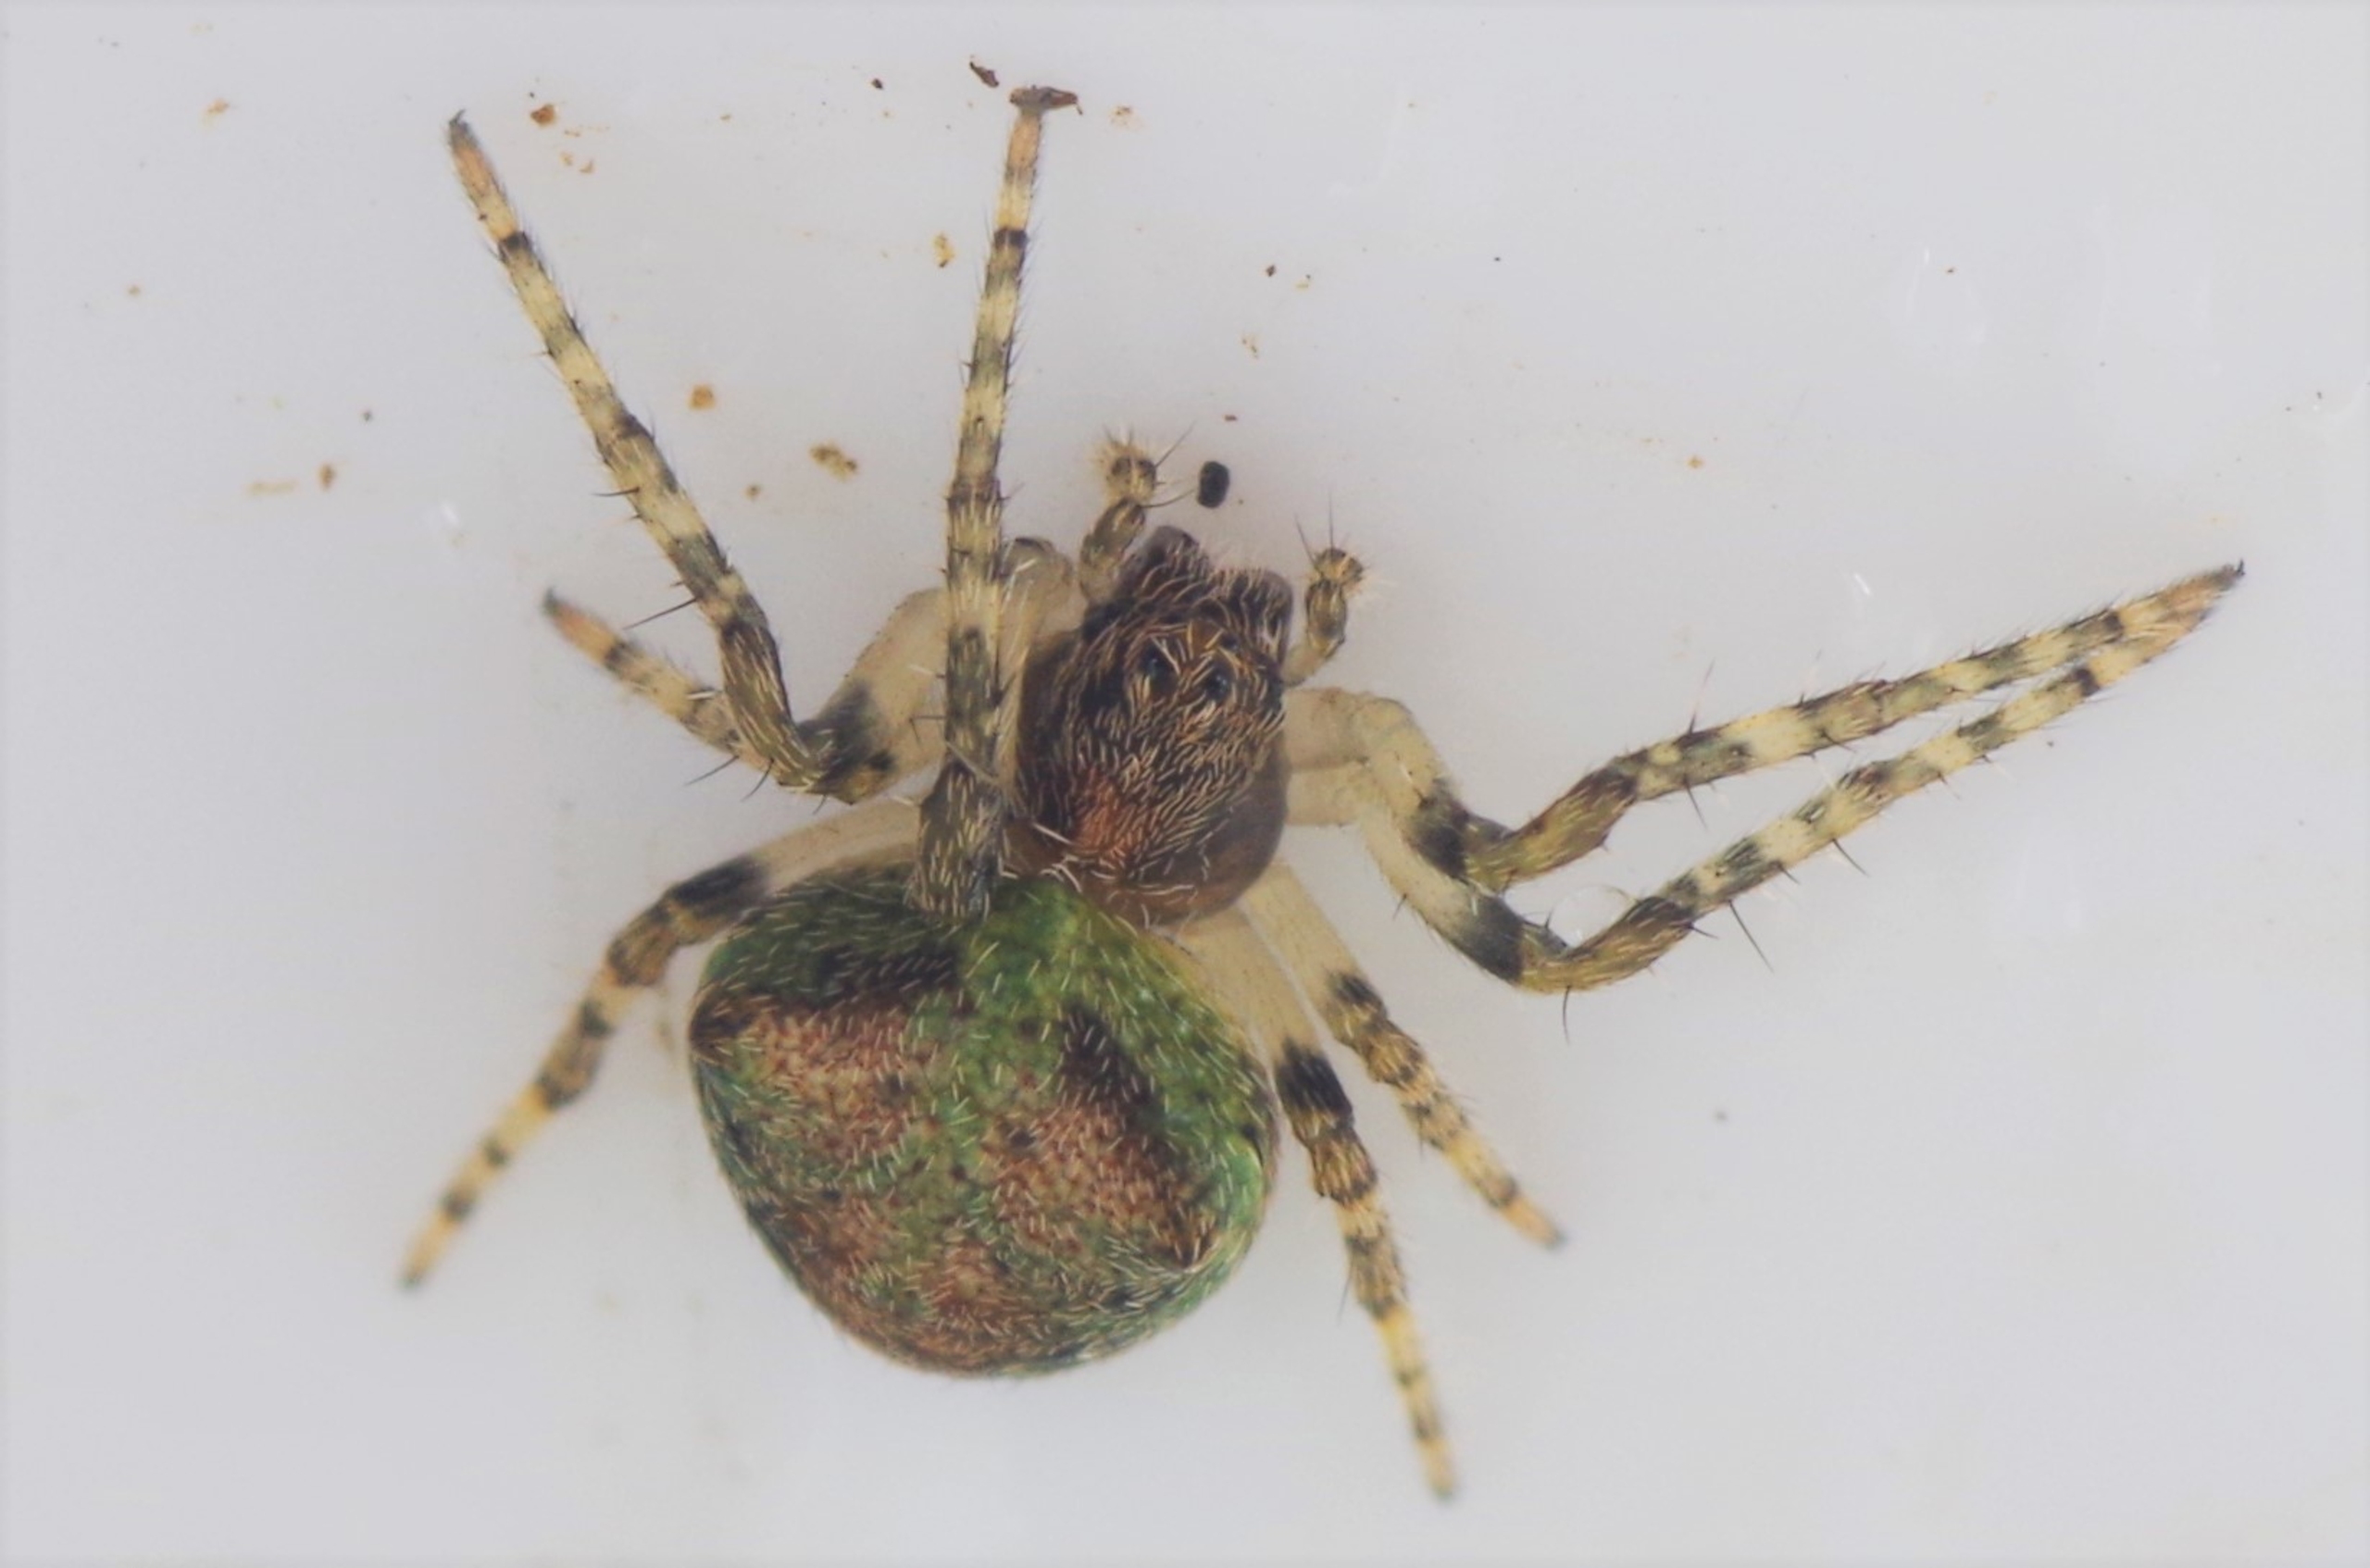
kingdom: Animalia
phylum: Arthropoda
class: Arachnida
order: Araneae
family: Araneidae
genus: Gibbaranea
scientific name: Gibbaranea gibbosa
